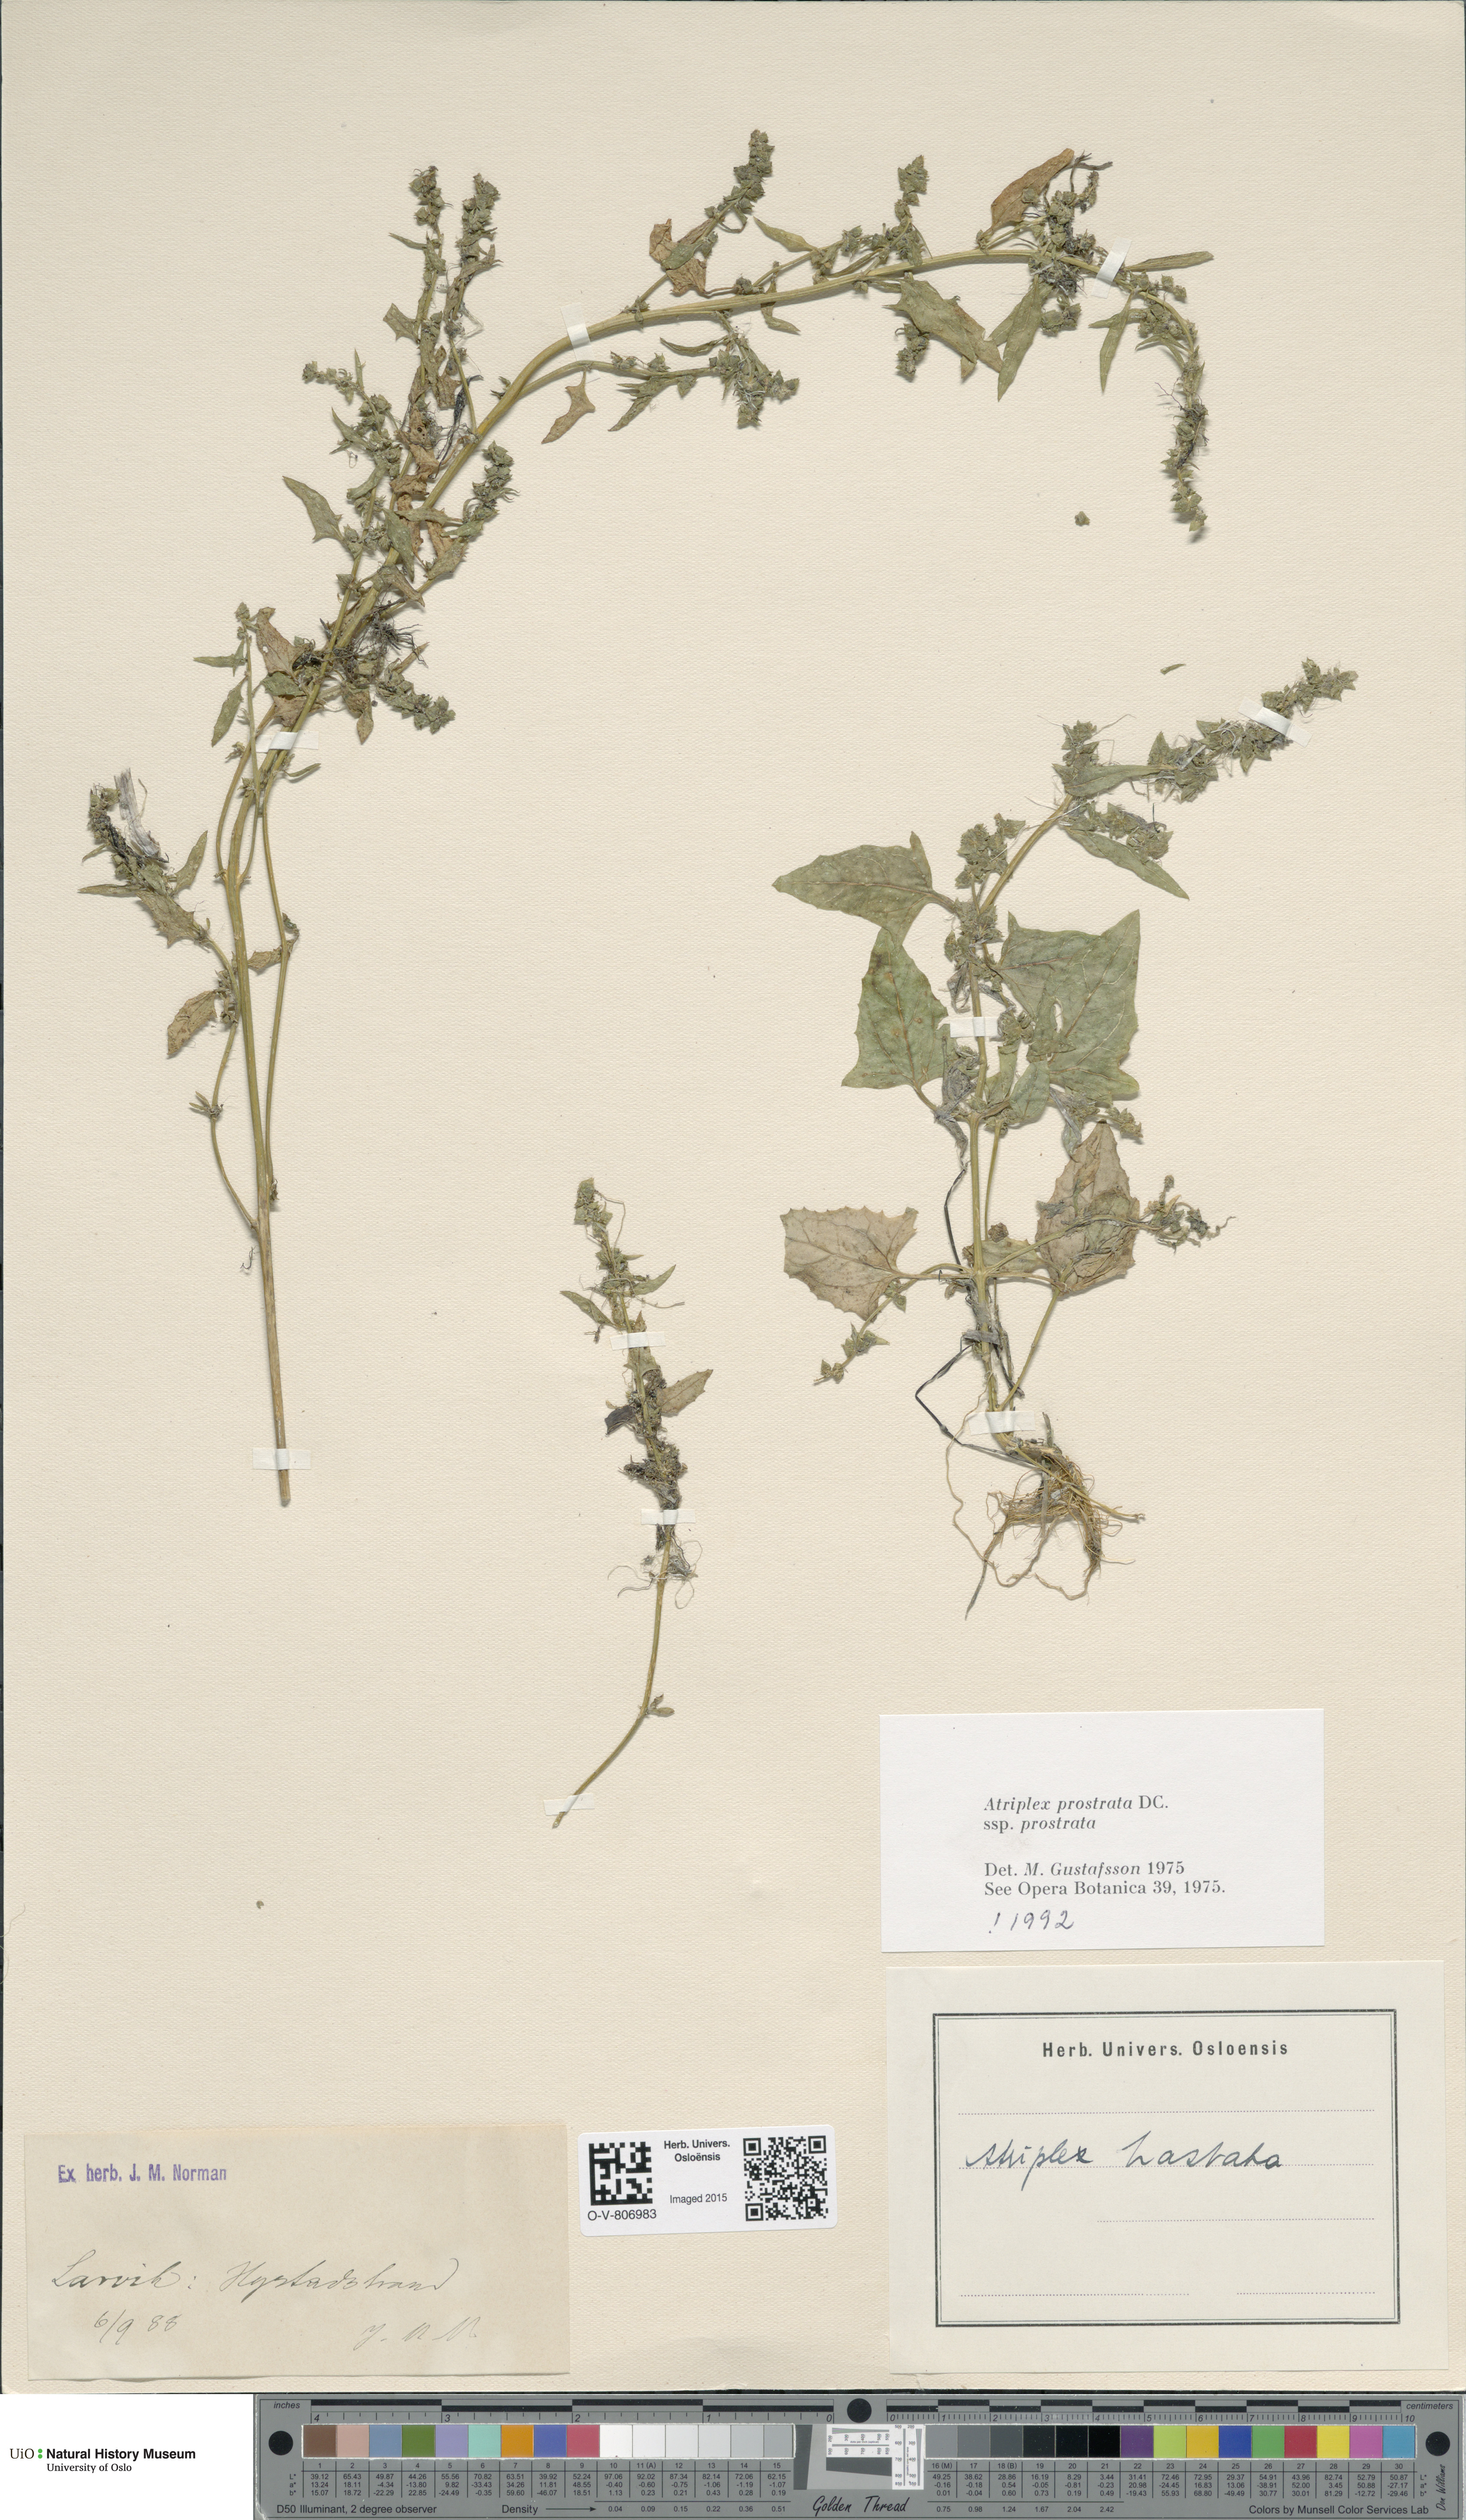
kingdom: Plantae
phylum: Tracheophyta
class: Magnoliopsida
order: Caryophyllales
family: Amaranthaceae
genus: Atriplex
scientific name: Atriplex prostrata
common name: Spear-leaved orache
